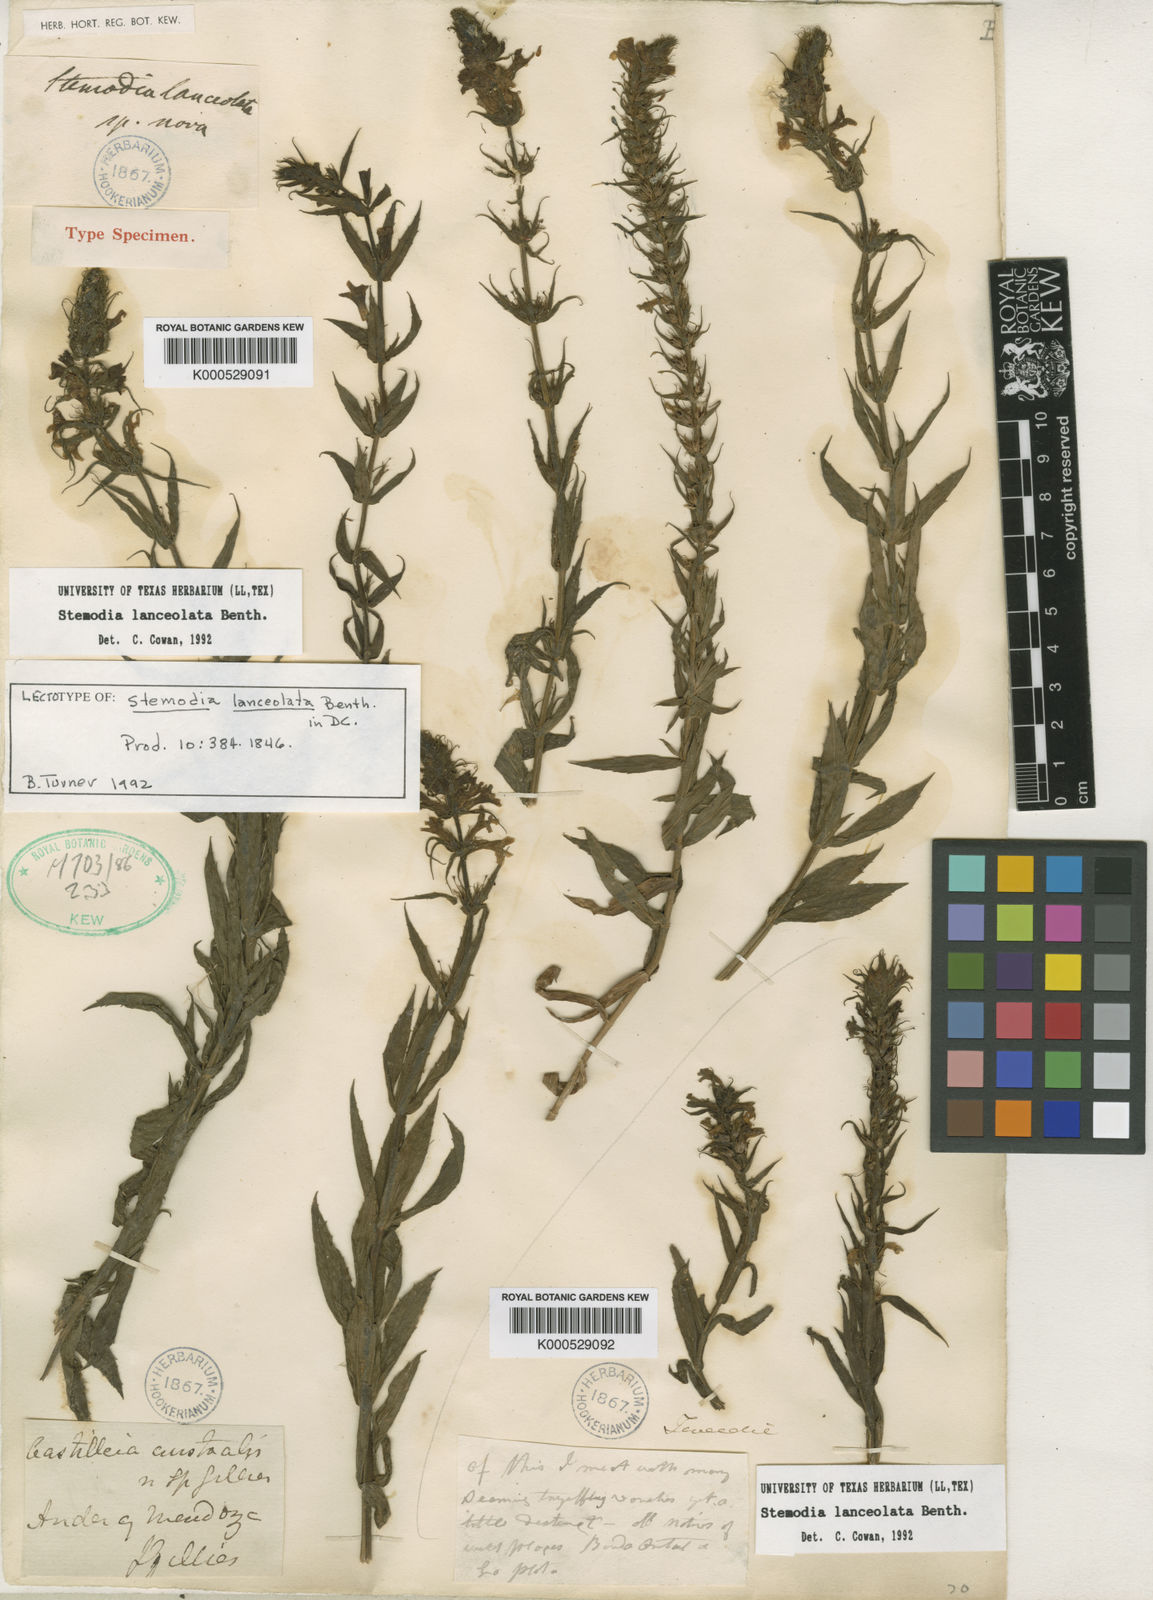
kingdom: Plantae
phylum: Tracheophyta
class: Magnoliopsida
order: Lamiales
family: Plantaginaceae
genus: Stemodia
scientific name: Stemodia lanceolata
